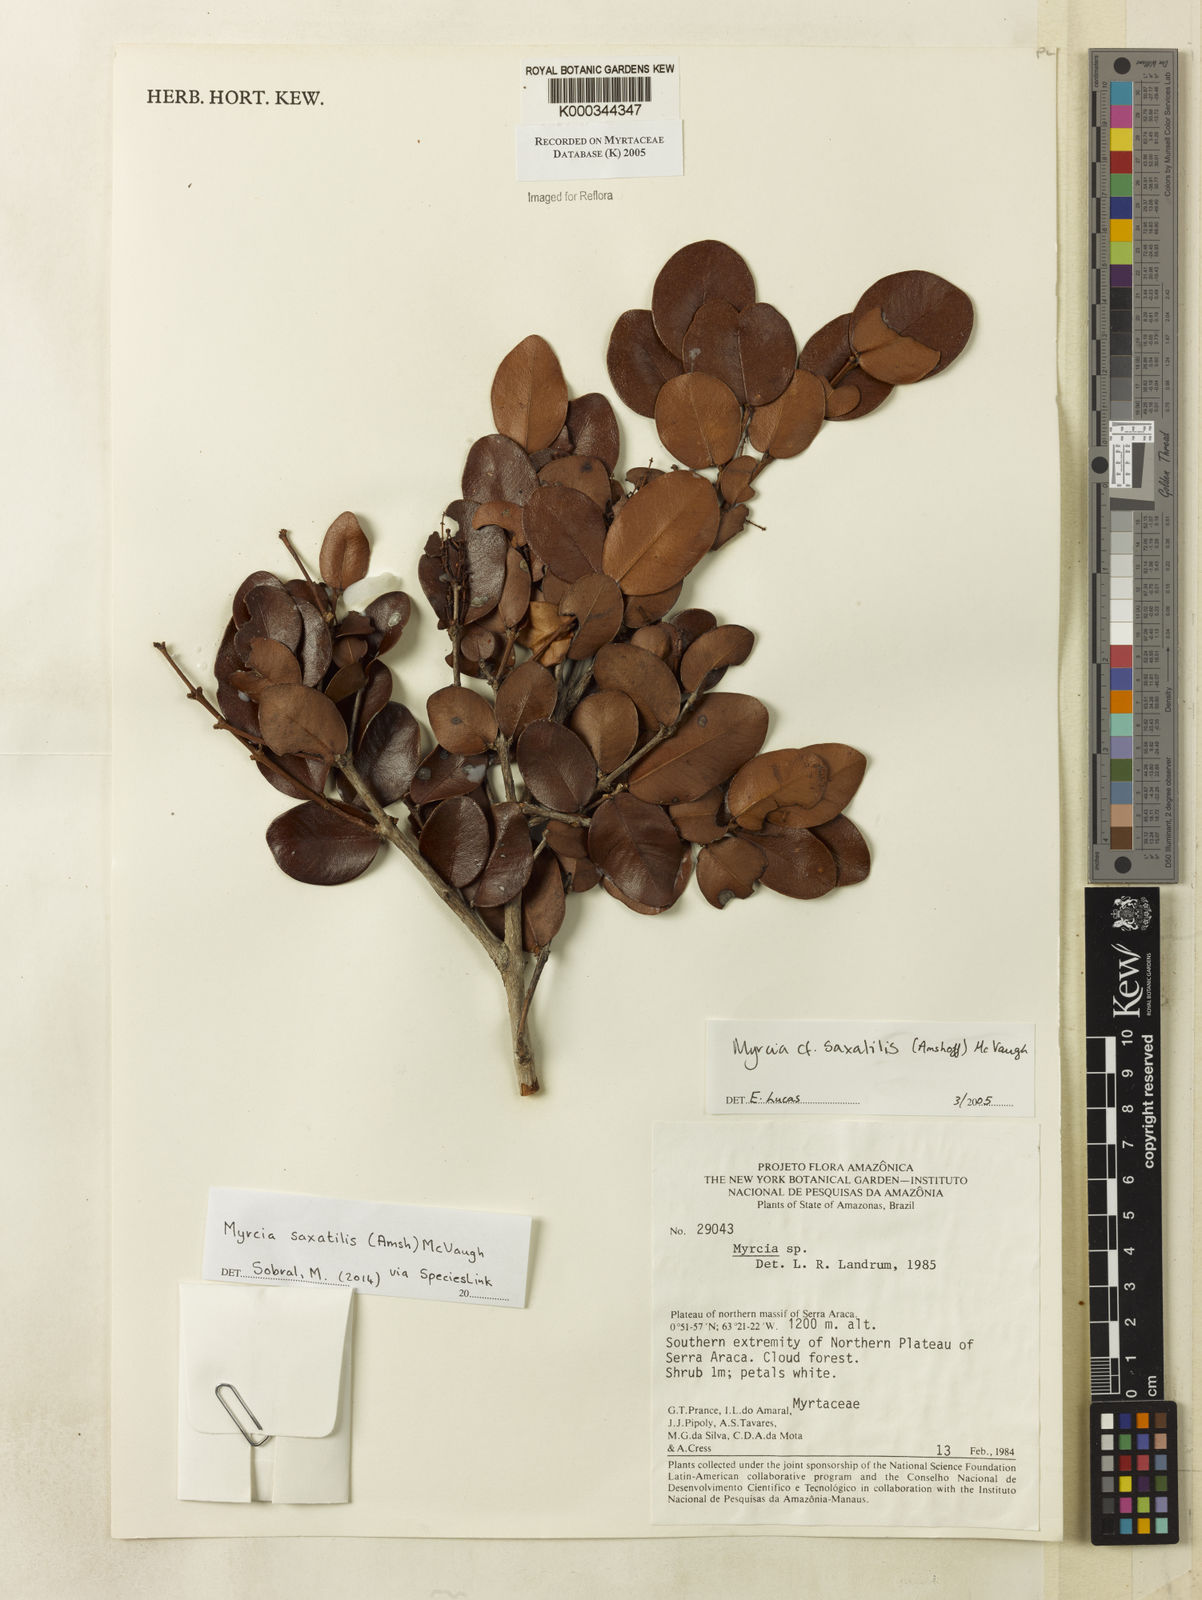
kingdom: Plantae
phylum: Tracheophyta
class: Magnoliopsida
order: Myrtales
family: Myrtaceae
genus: Myrcia
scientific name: Myrcia saxatilis
